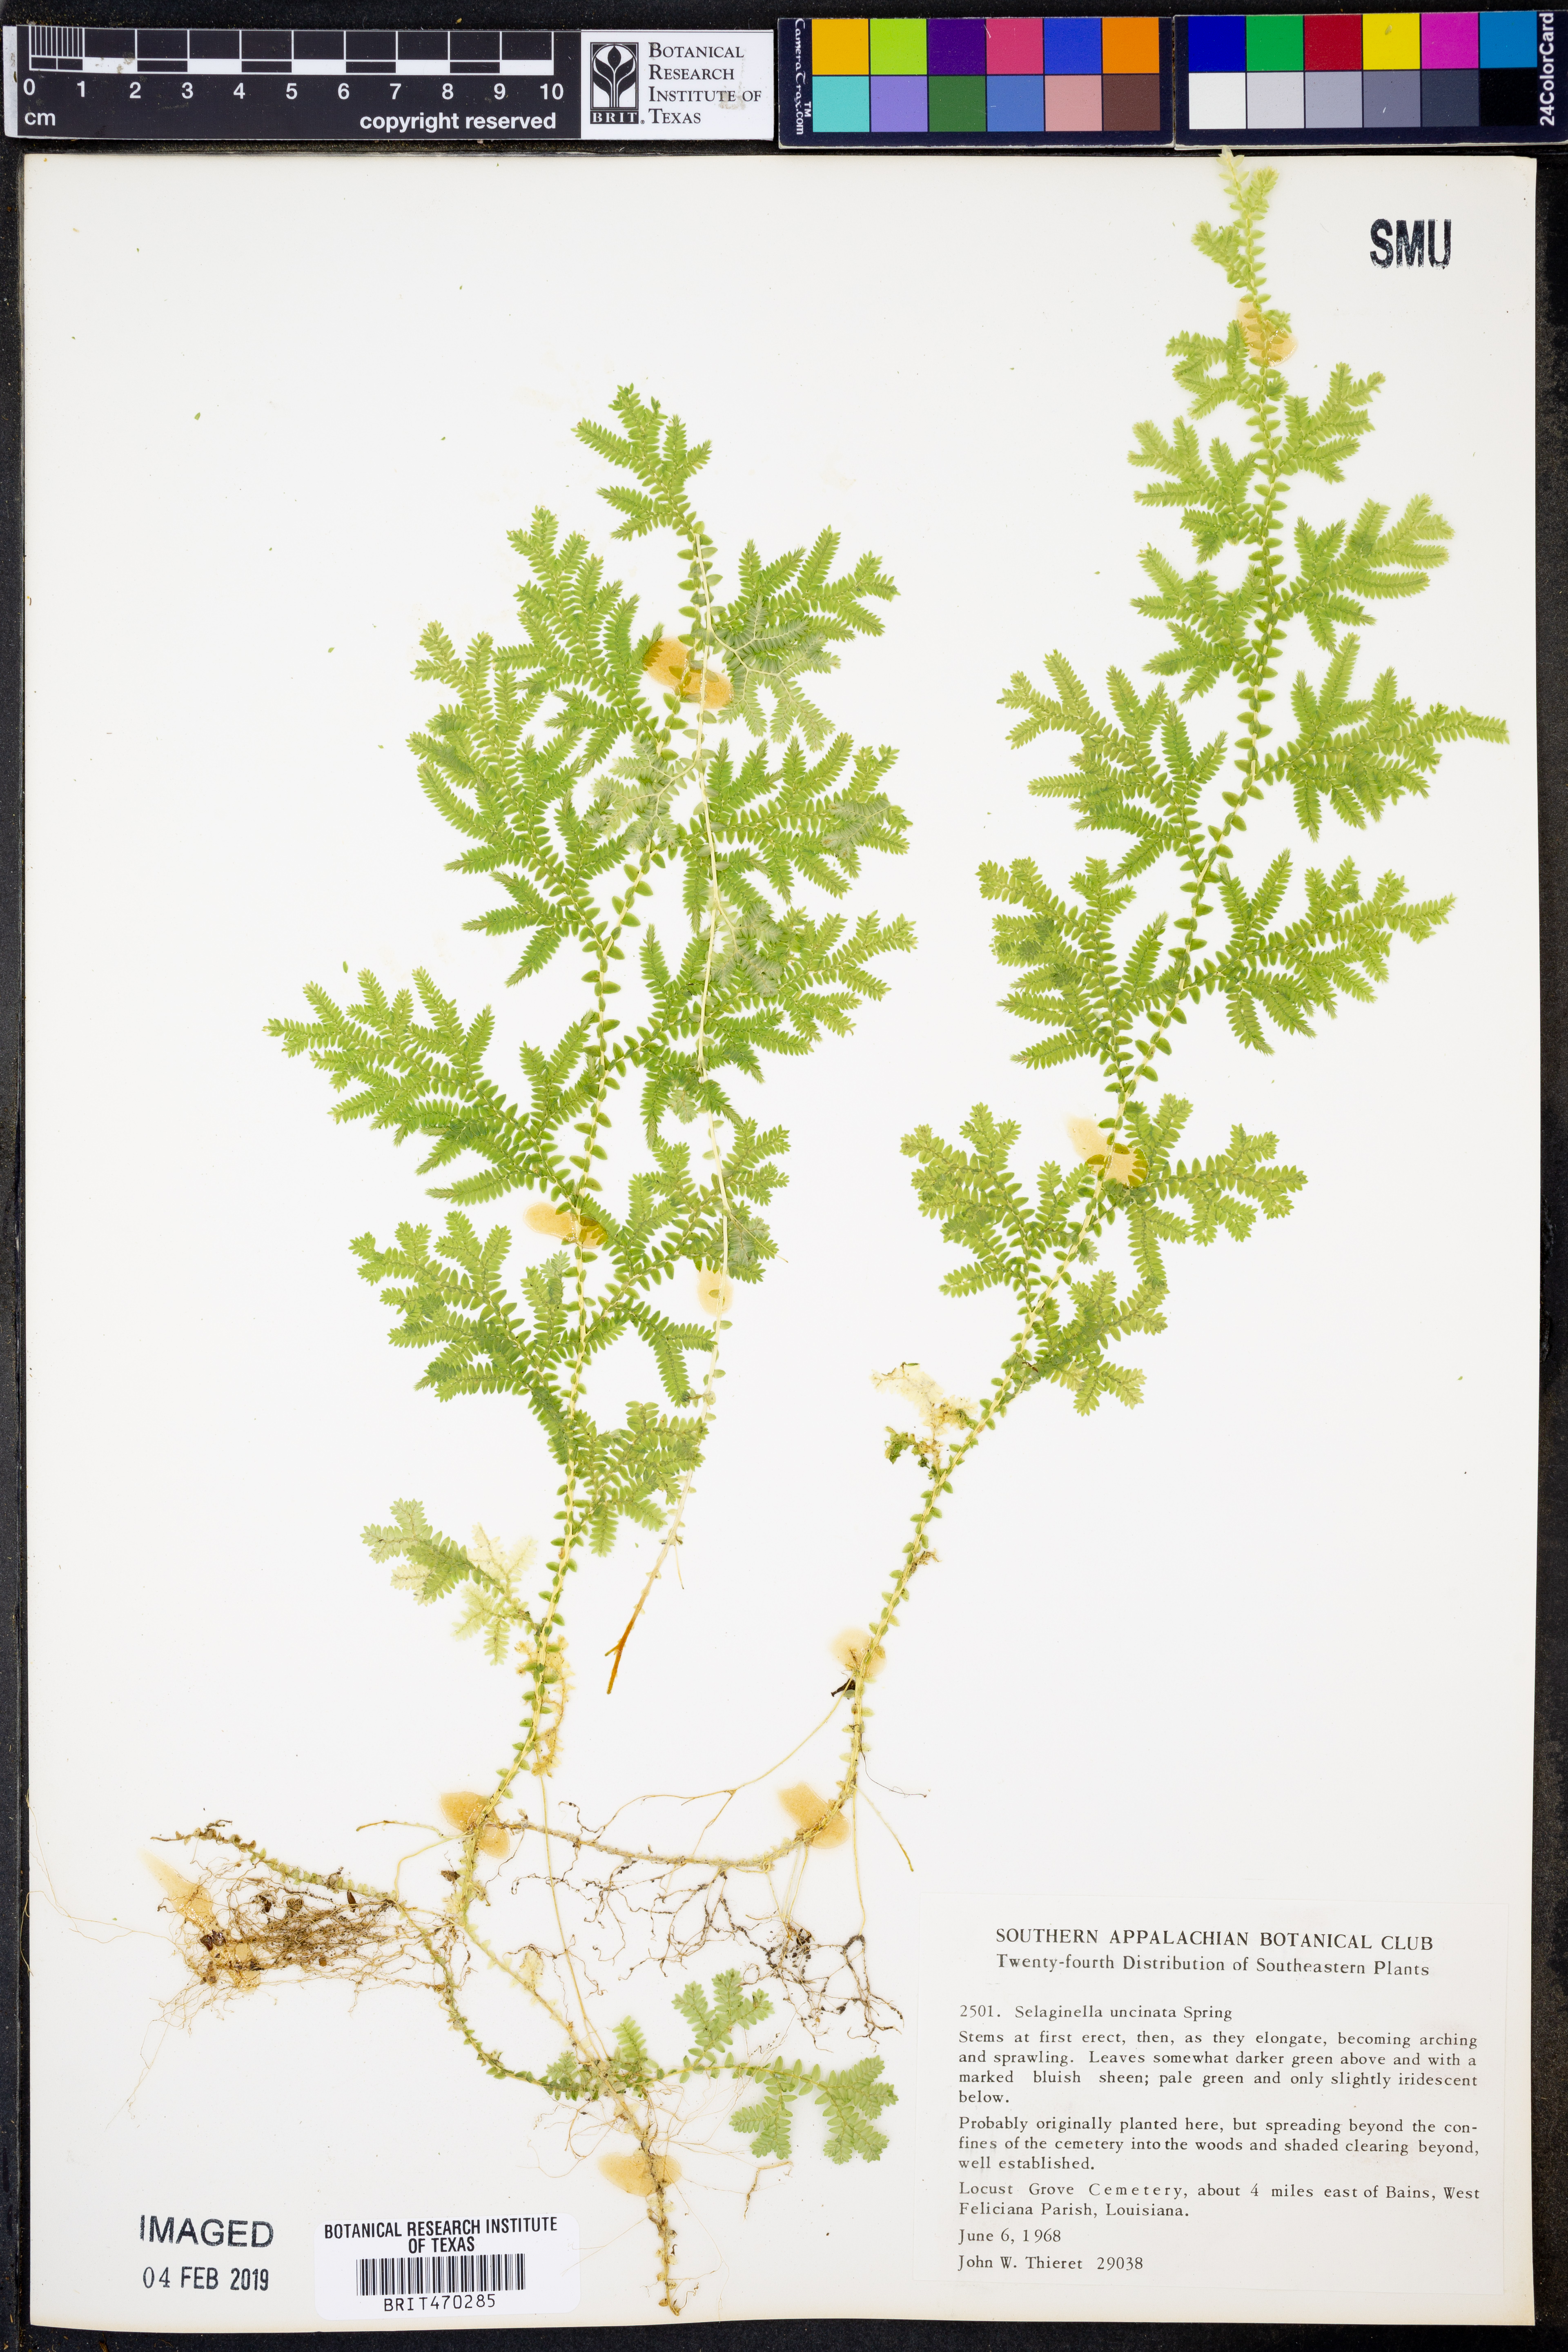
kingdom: Plantae
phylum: Tracheophyta
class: Lycopodiopsida
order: Selaginellales
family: Selaginellaceae
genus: Selaginella
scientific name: Selaginella uncinata
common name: Blue spikemoss
